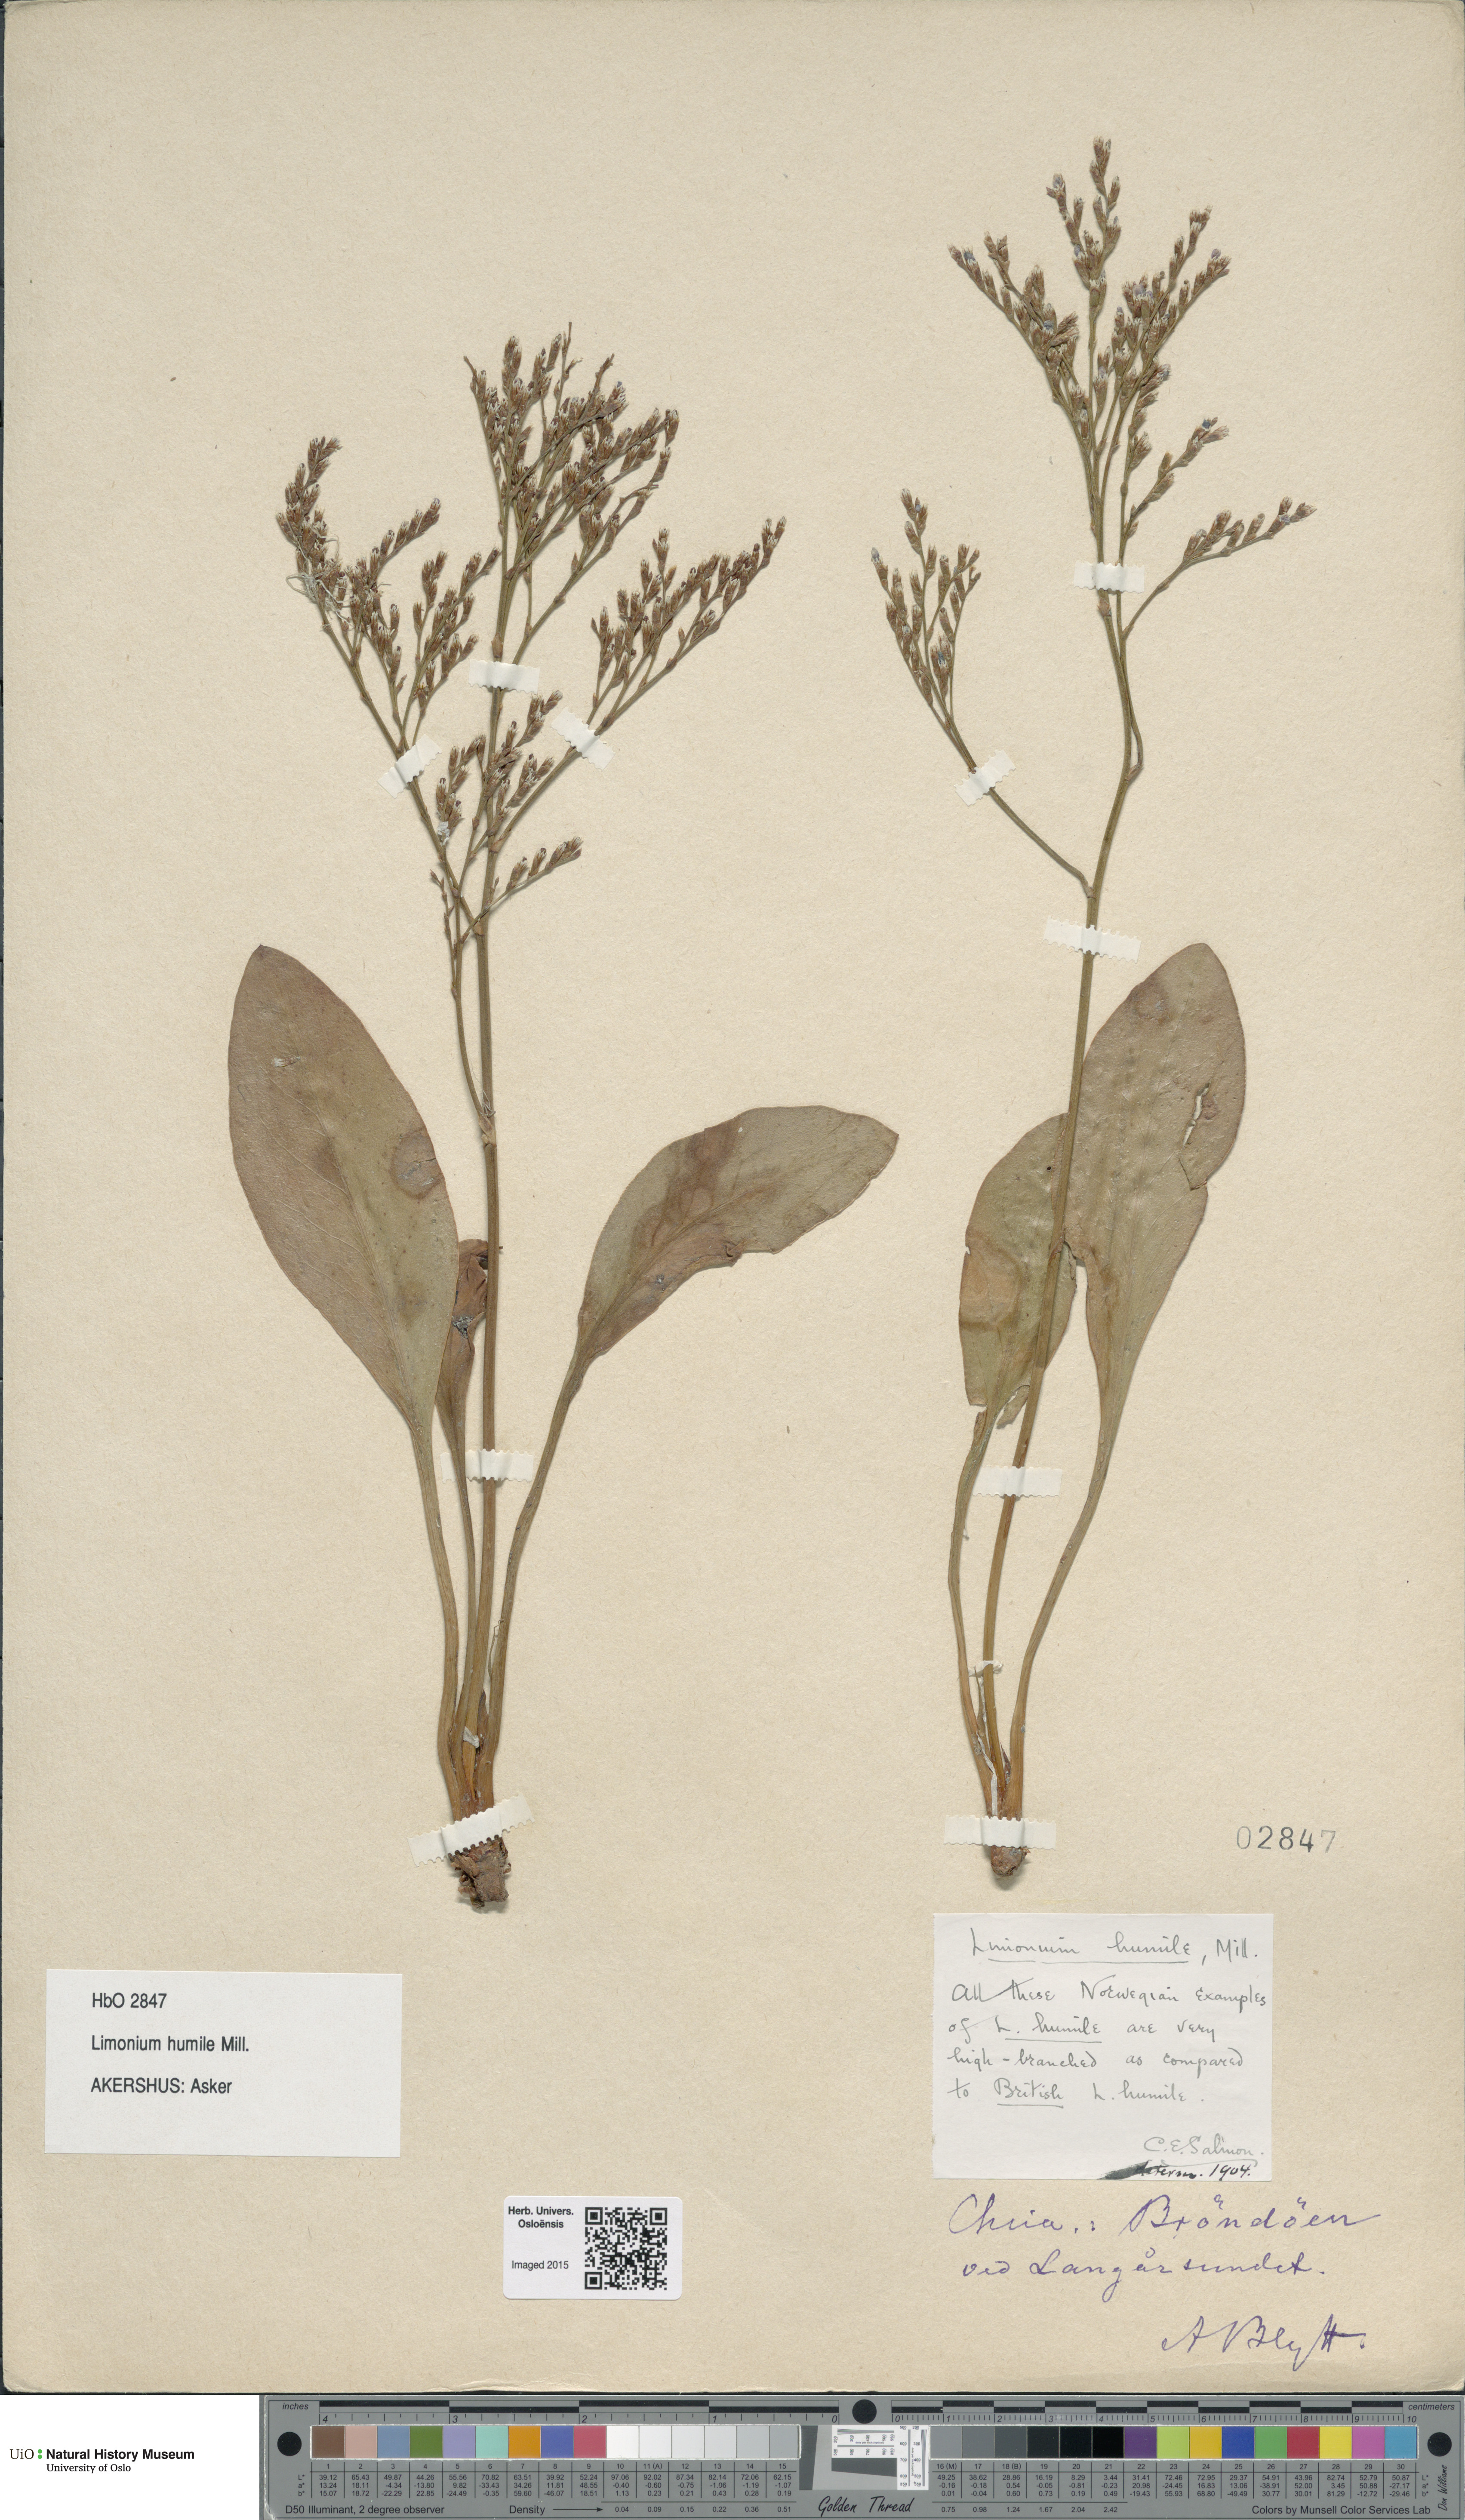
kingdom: Plantae
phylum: Tracheophyta
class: Magnoliopsida
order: Caryophyllales
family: Plumbaginaceae
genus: Limonium
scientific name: Limonium humile
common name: Lax-flowered sea-lavender
